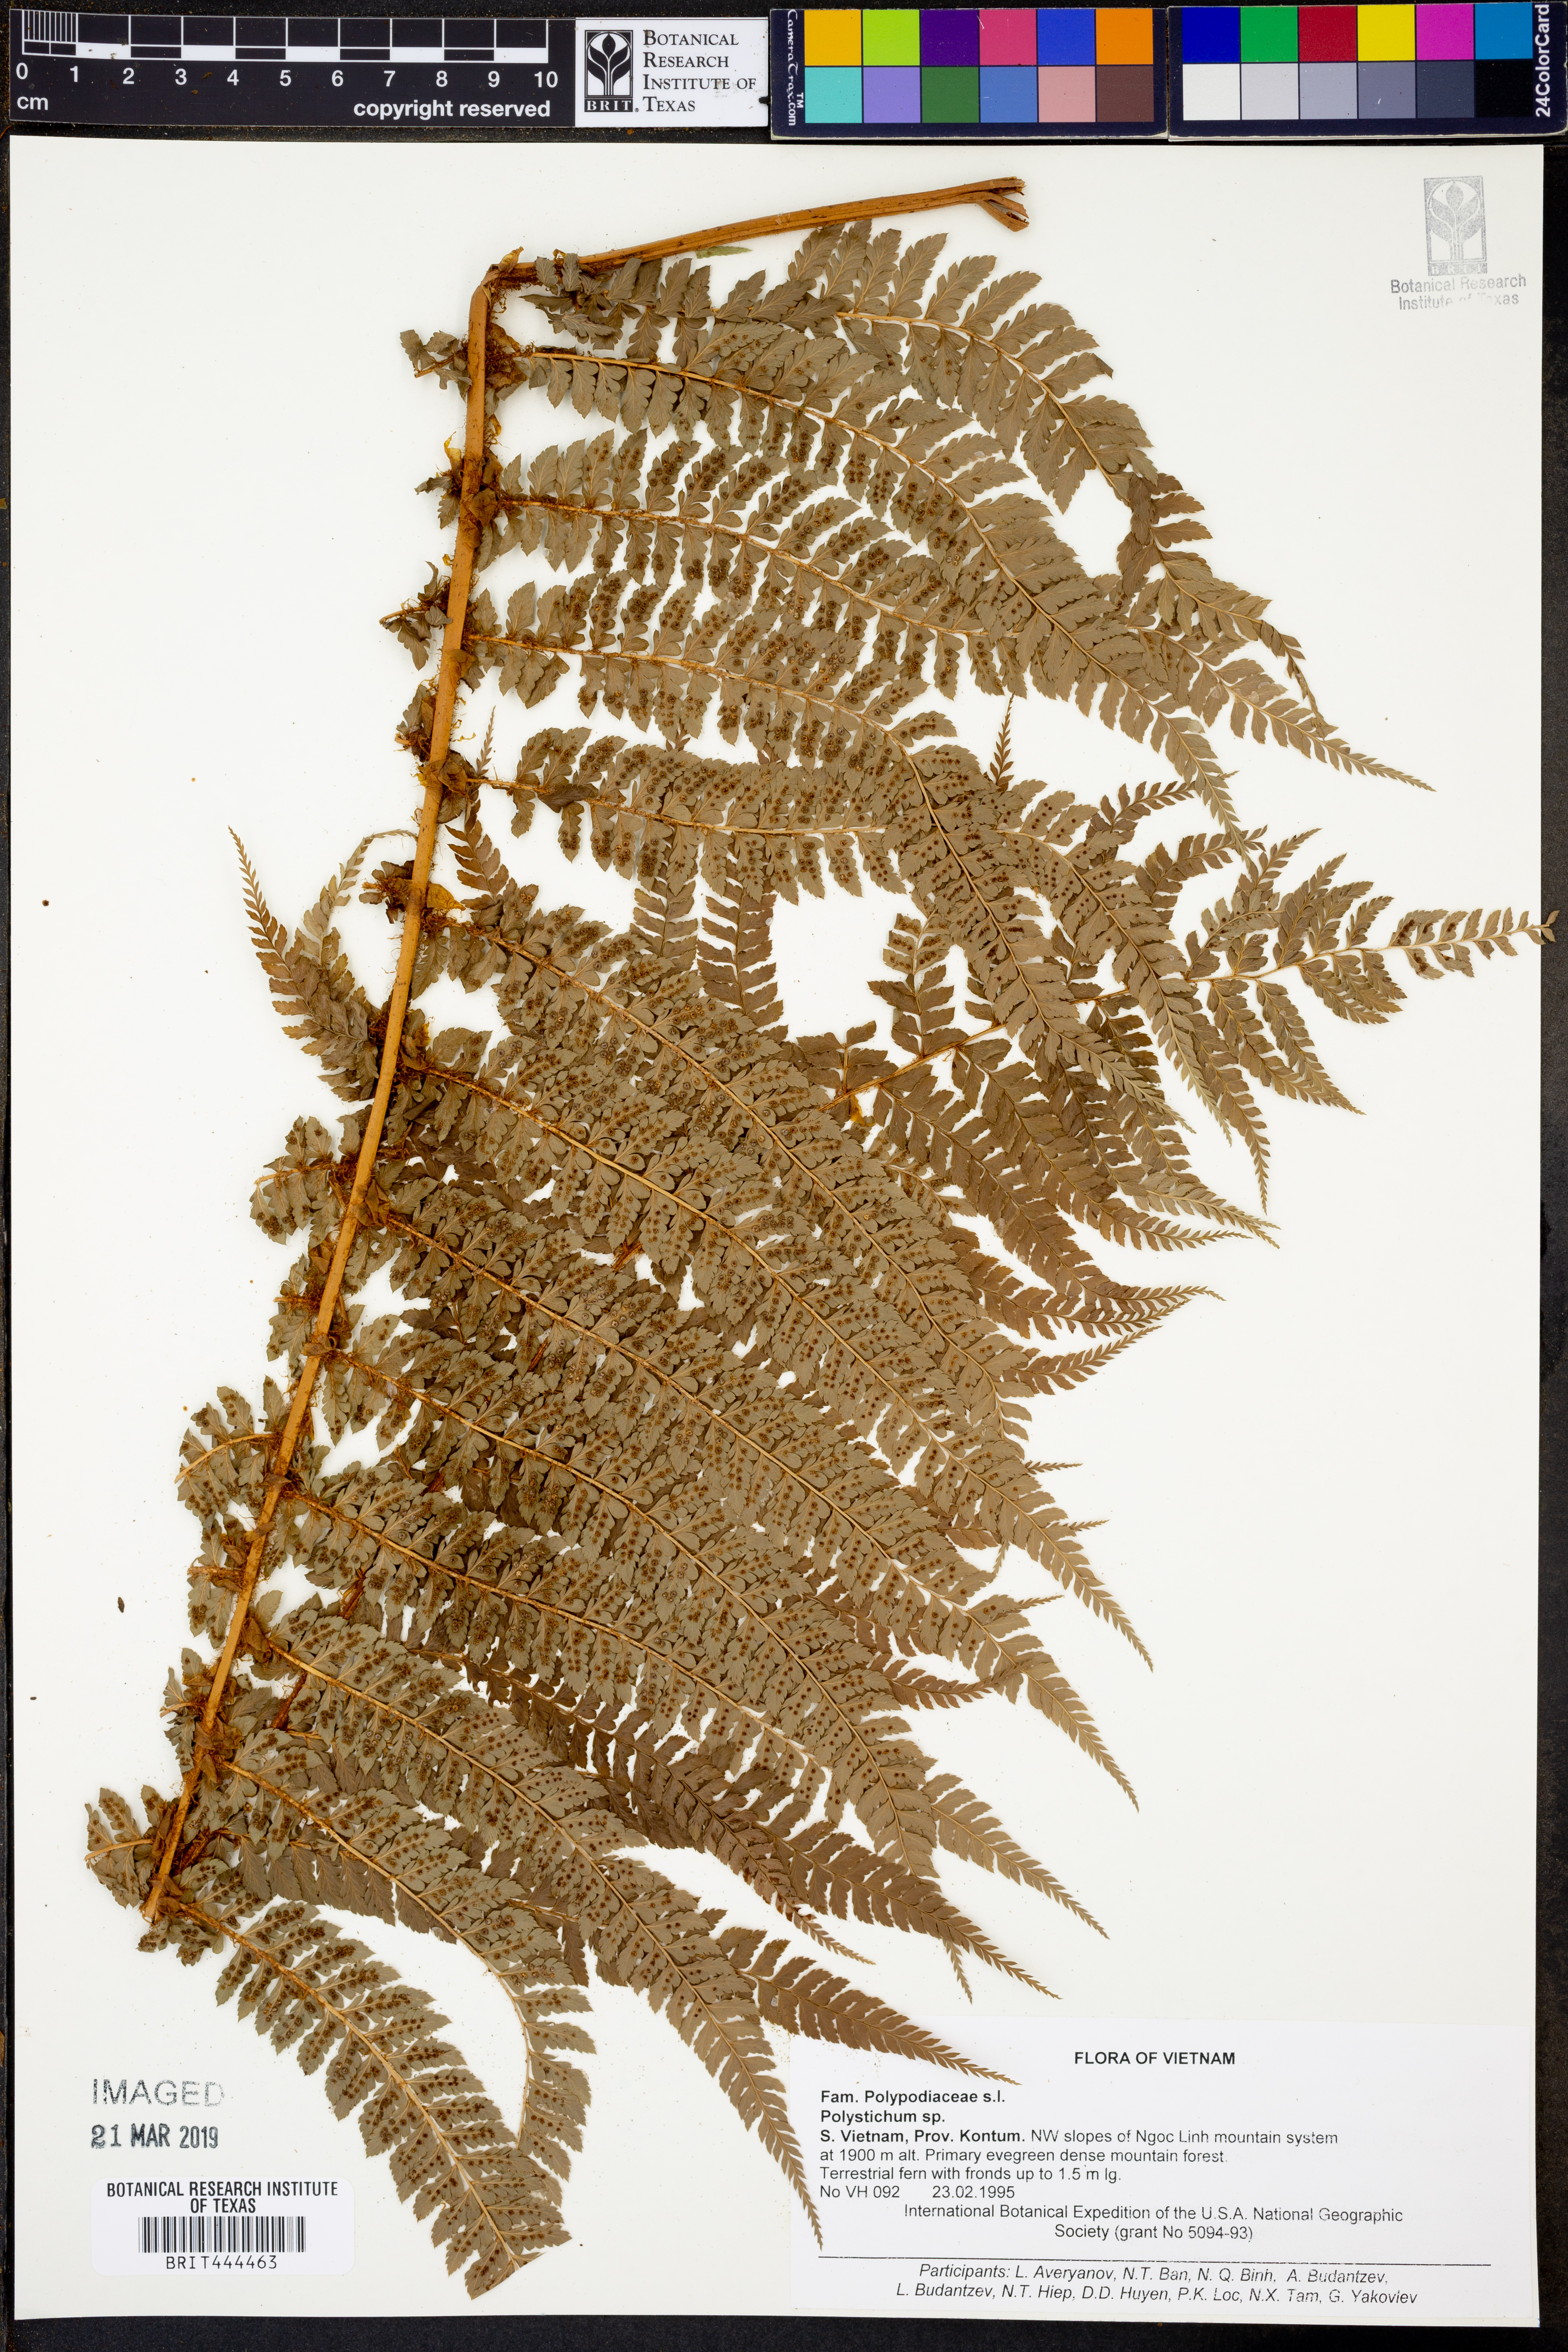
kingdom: Plantae
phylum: Tracheophyta
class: Polypodiopsida
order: Polypodiales
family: Dryopteridaceae
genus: Polystichum
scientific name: Polystichum
